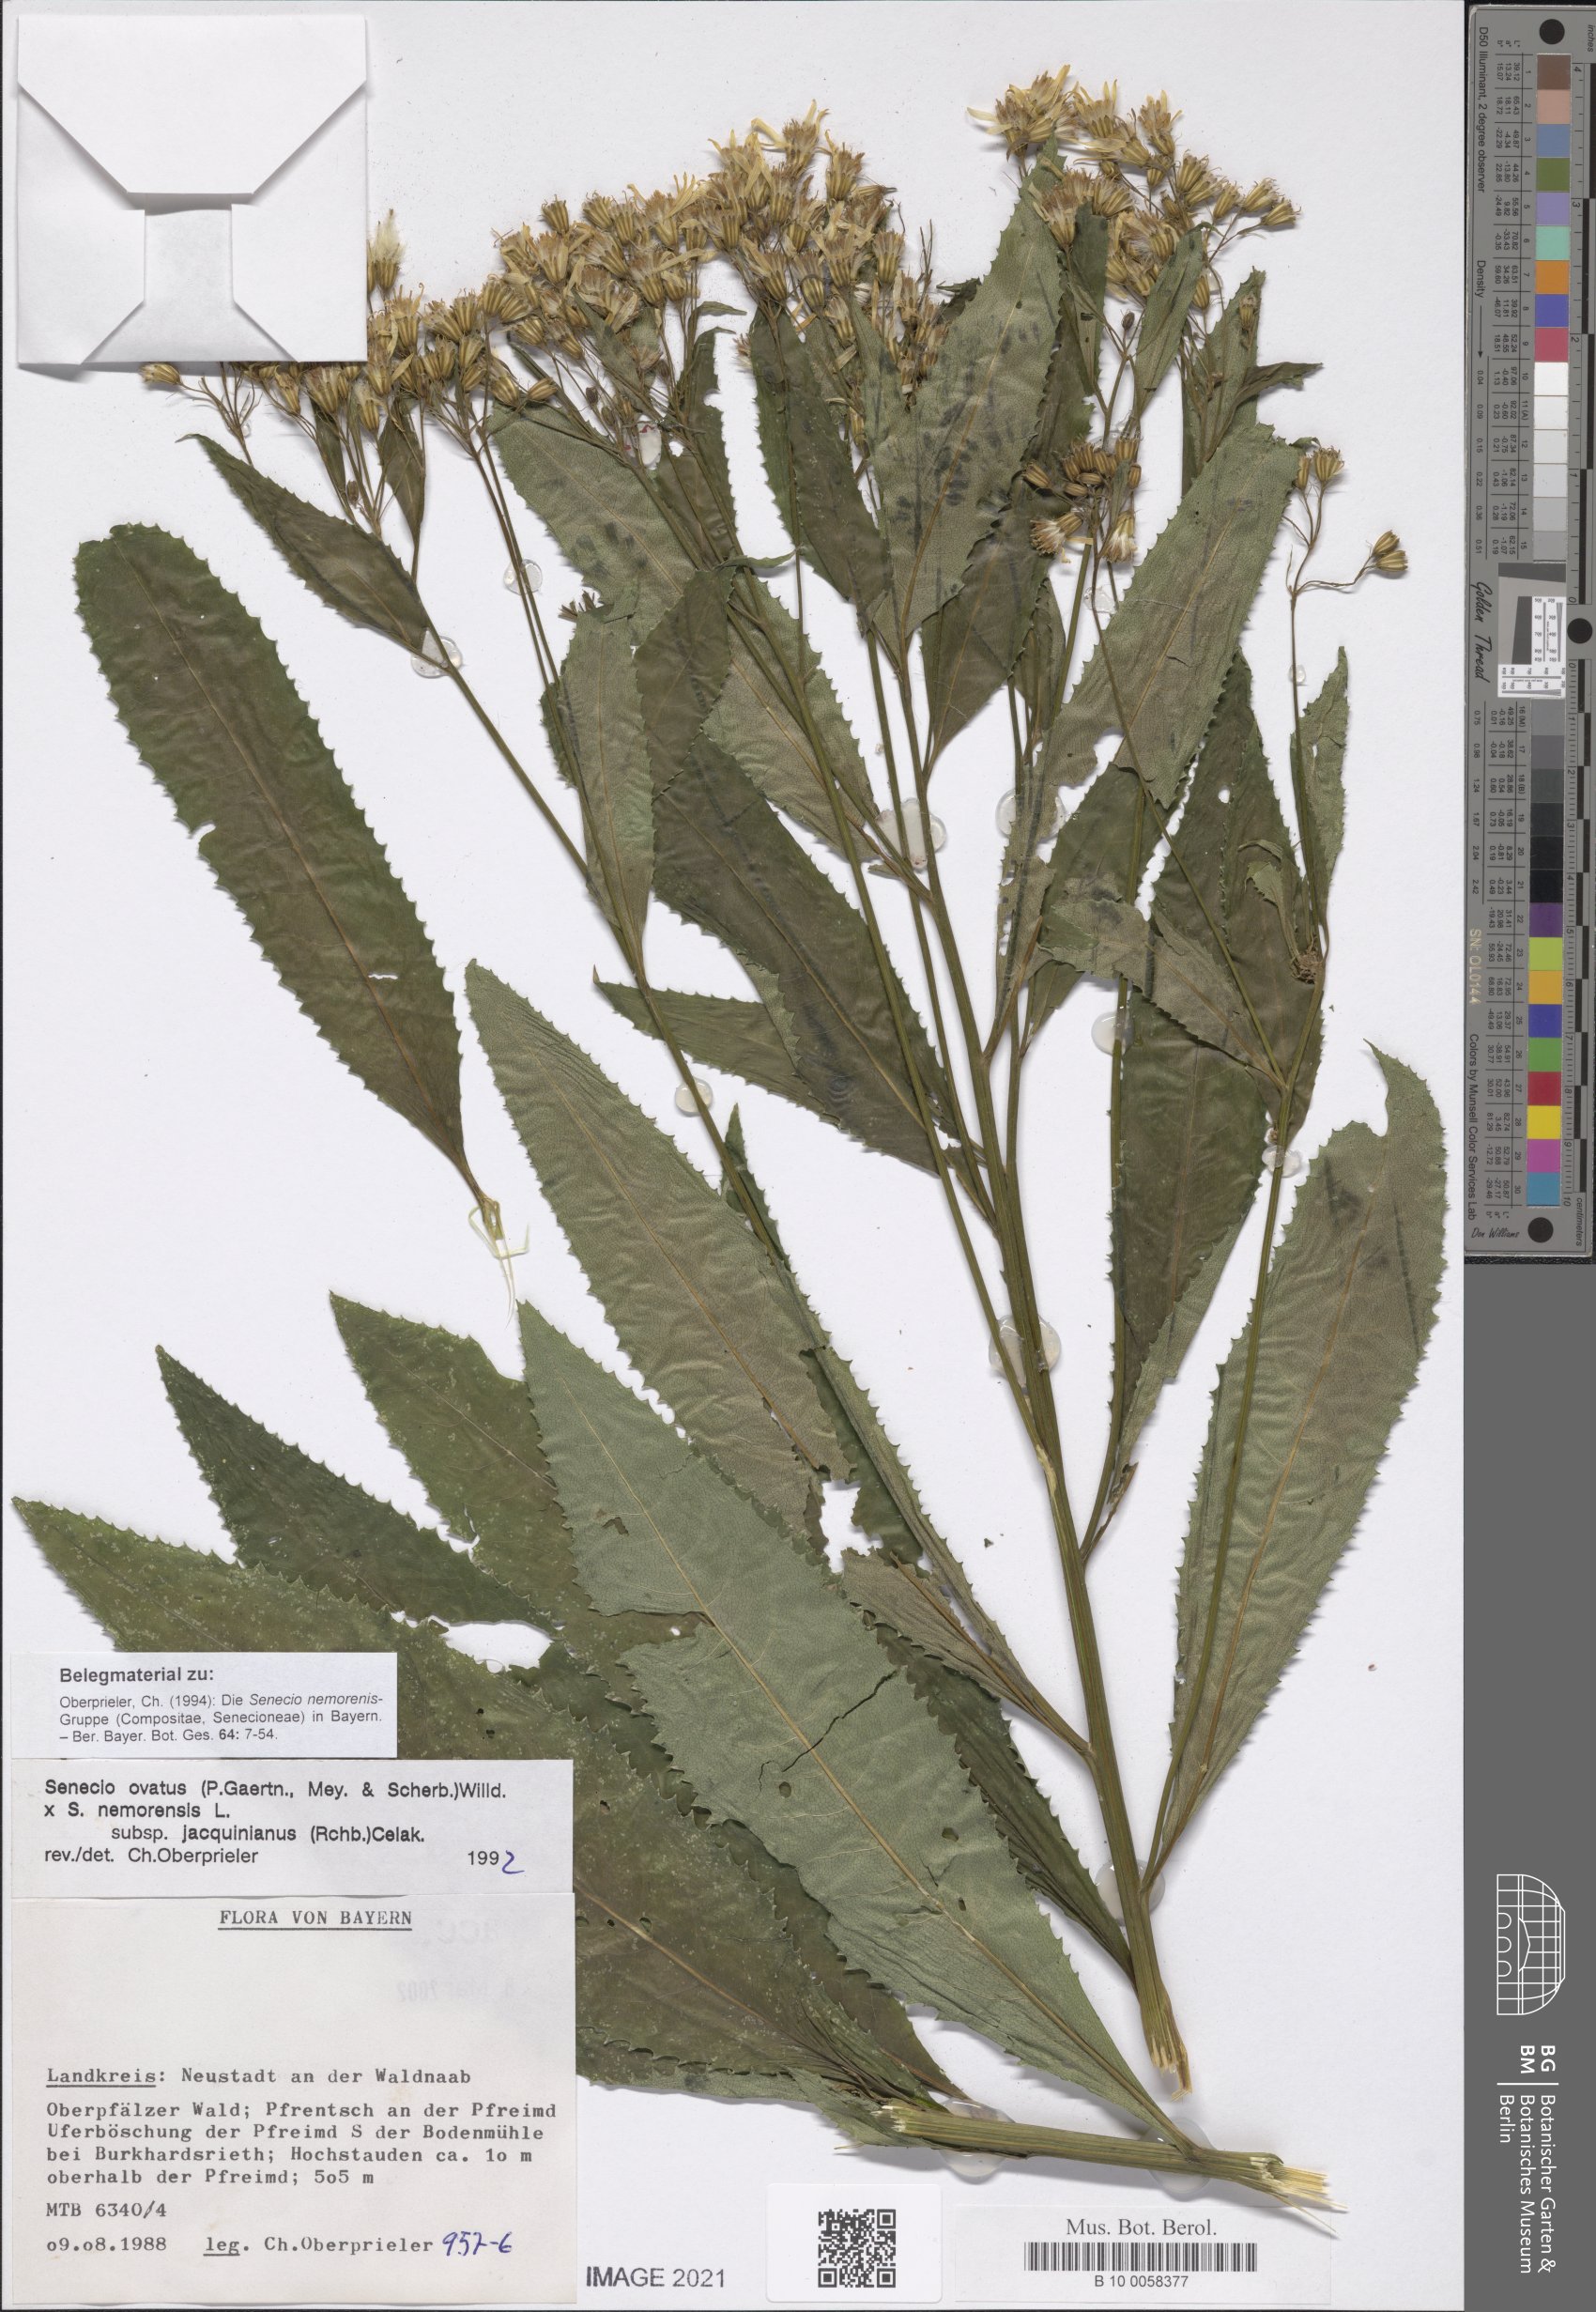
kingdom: Plantae
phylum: Tracheophyta
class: Magnoliopsida
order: Asterales
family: Asteraceae
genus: Senecio
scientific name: Senecio ovatus
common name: Wood ragwort
